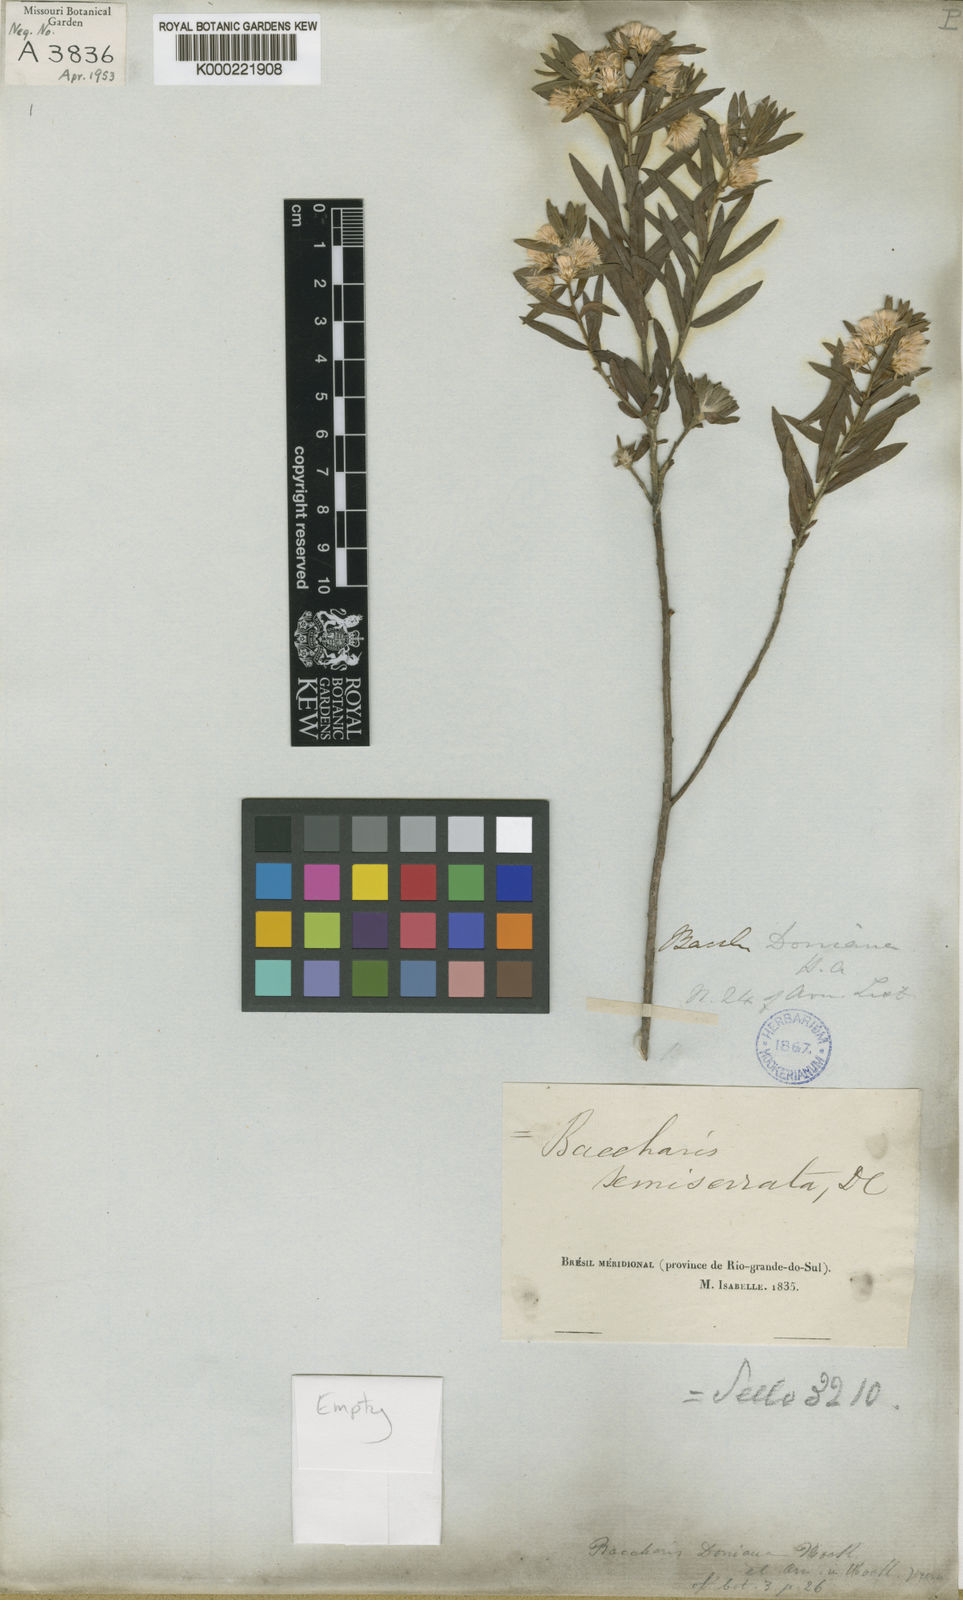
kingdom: Plantae
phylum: Tracheophyta
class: Magnoliopsida
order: Asterales
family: Asteraceae
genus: Baccharis
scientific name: Baccharis dracunculifolia
